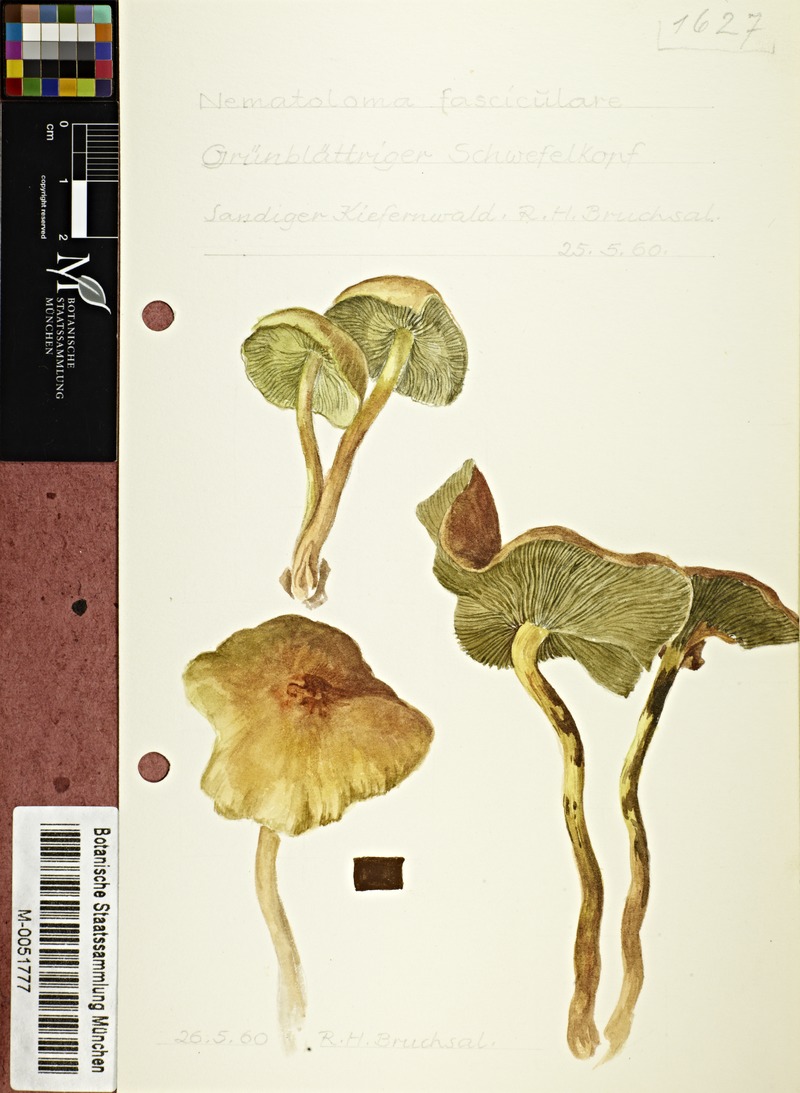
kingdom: Fungi
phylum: Basidiomycota
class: Agaricomycetes
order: Agaricales
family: Strophariaceae
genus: Hypholoma
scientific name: Hypholoma fasciculare
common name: Sulphur tuft
